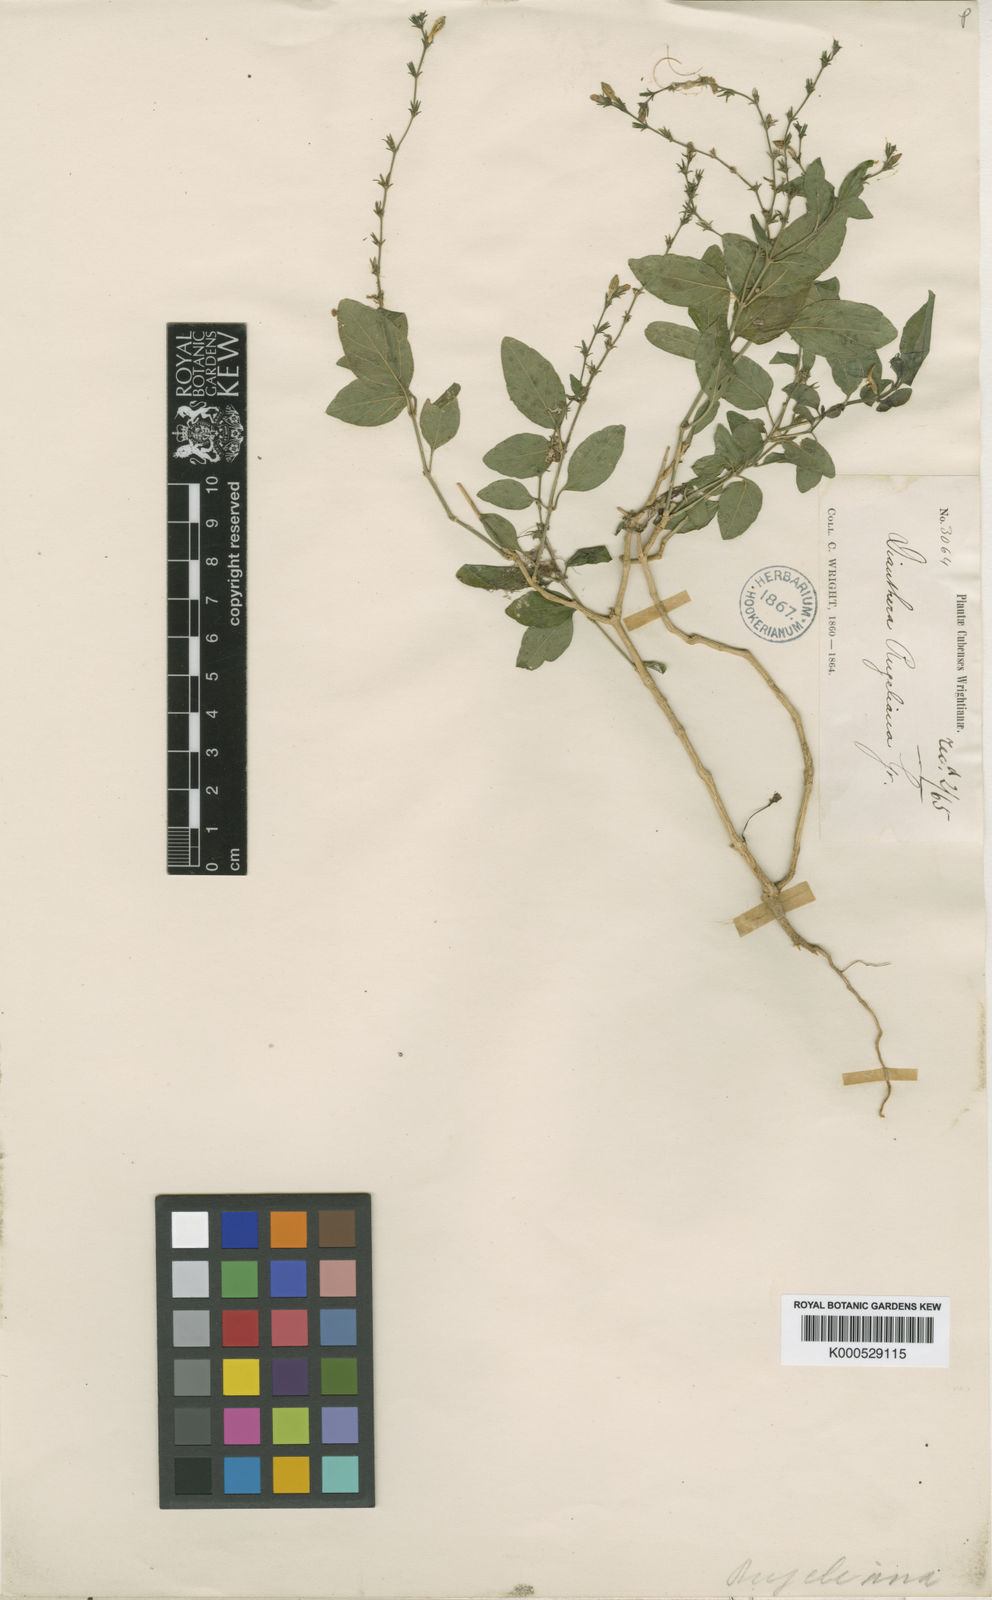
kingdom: Plantae
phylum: Tracheophyta
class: Magnoliopsida
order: Lamiales
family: Acanthaceae
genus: Dianthera
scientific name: Dianthera rugeliana
